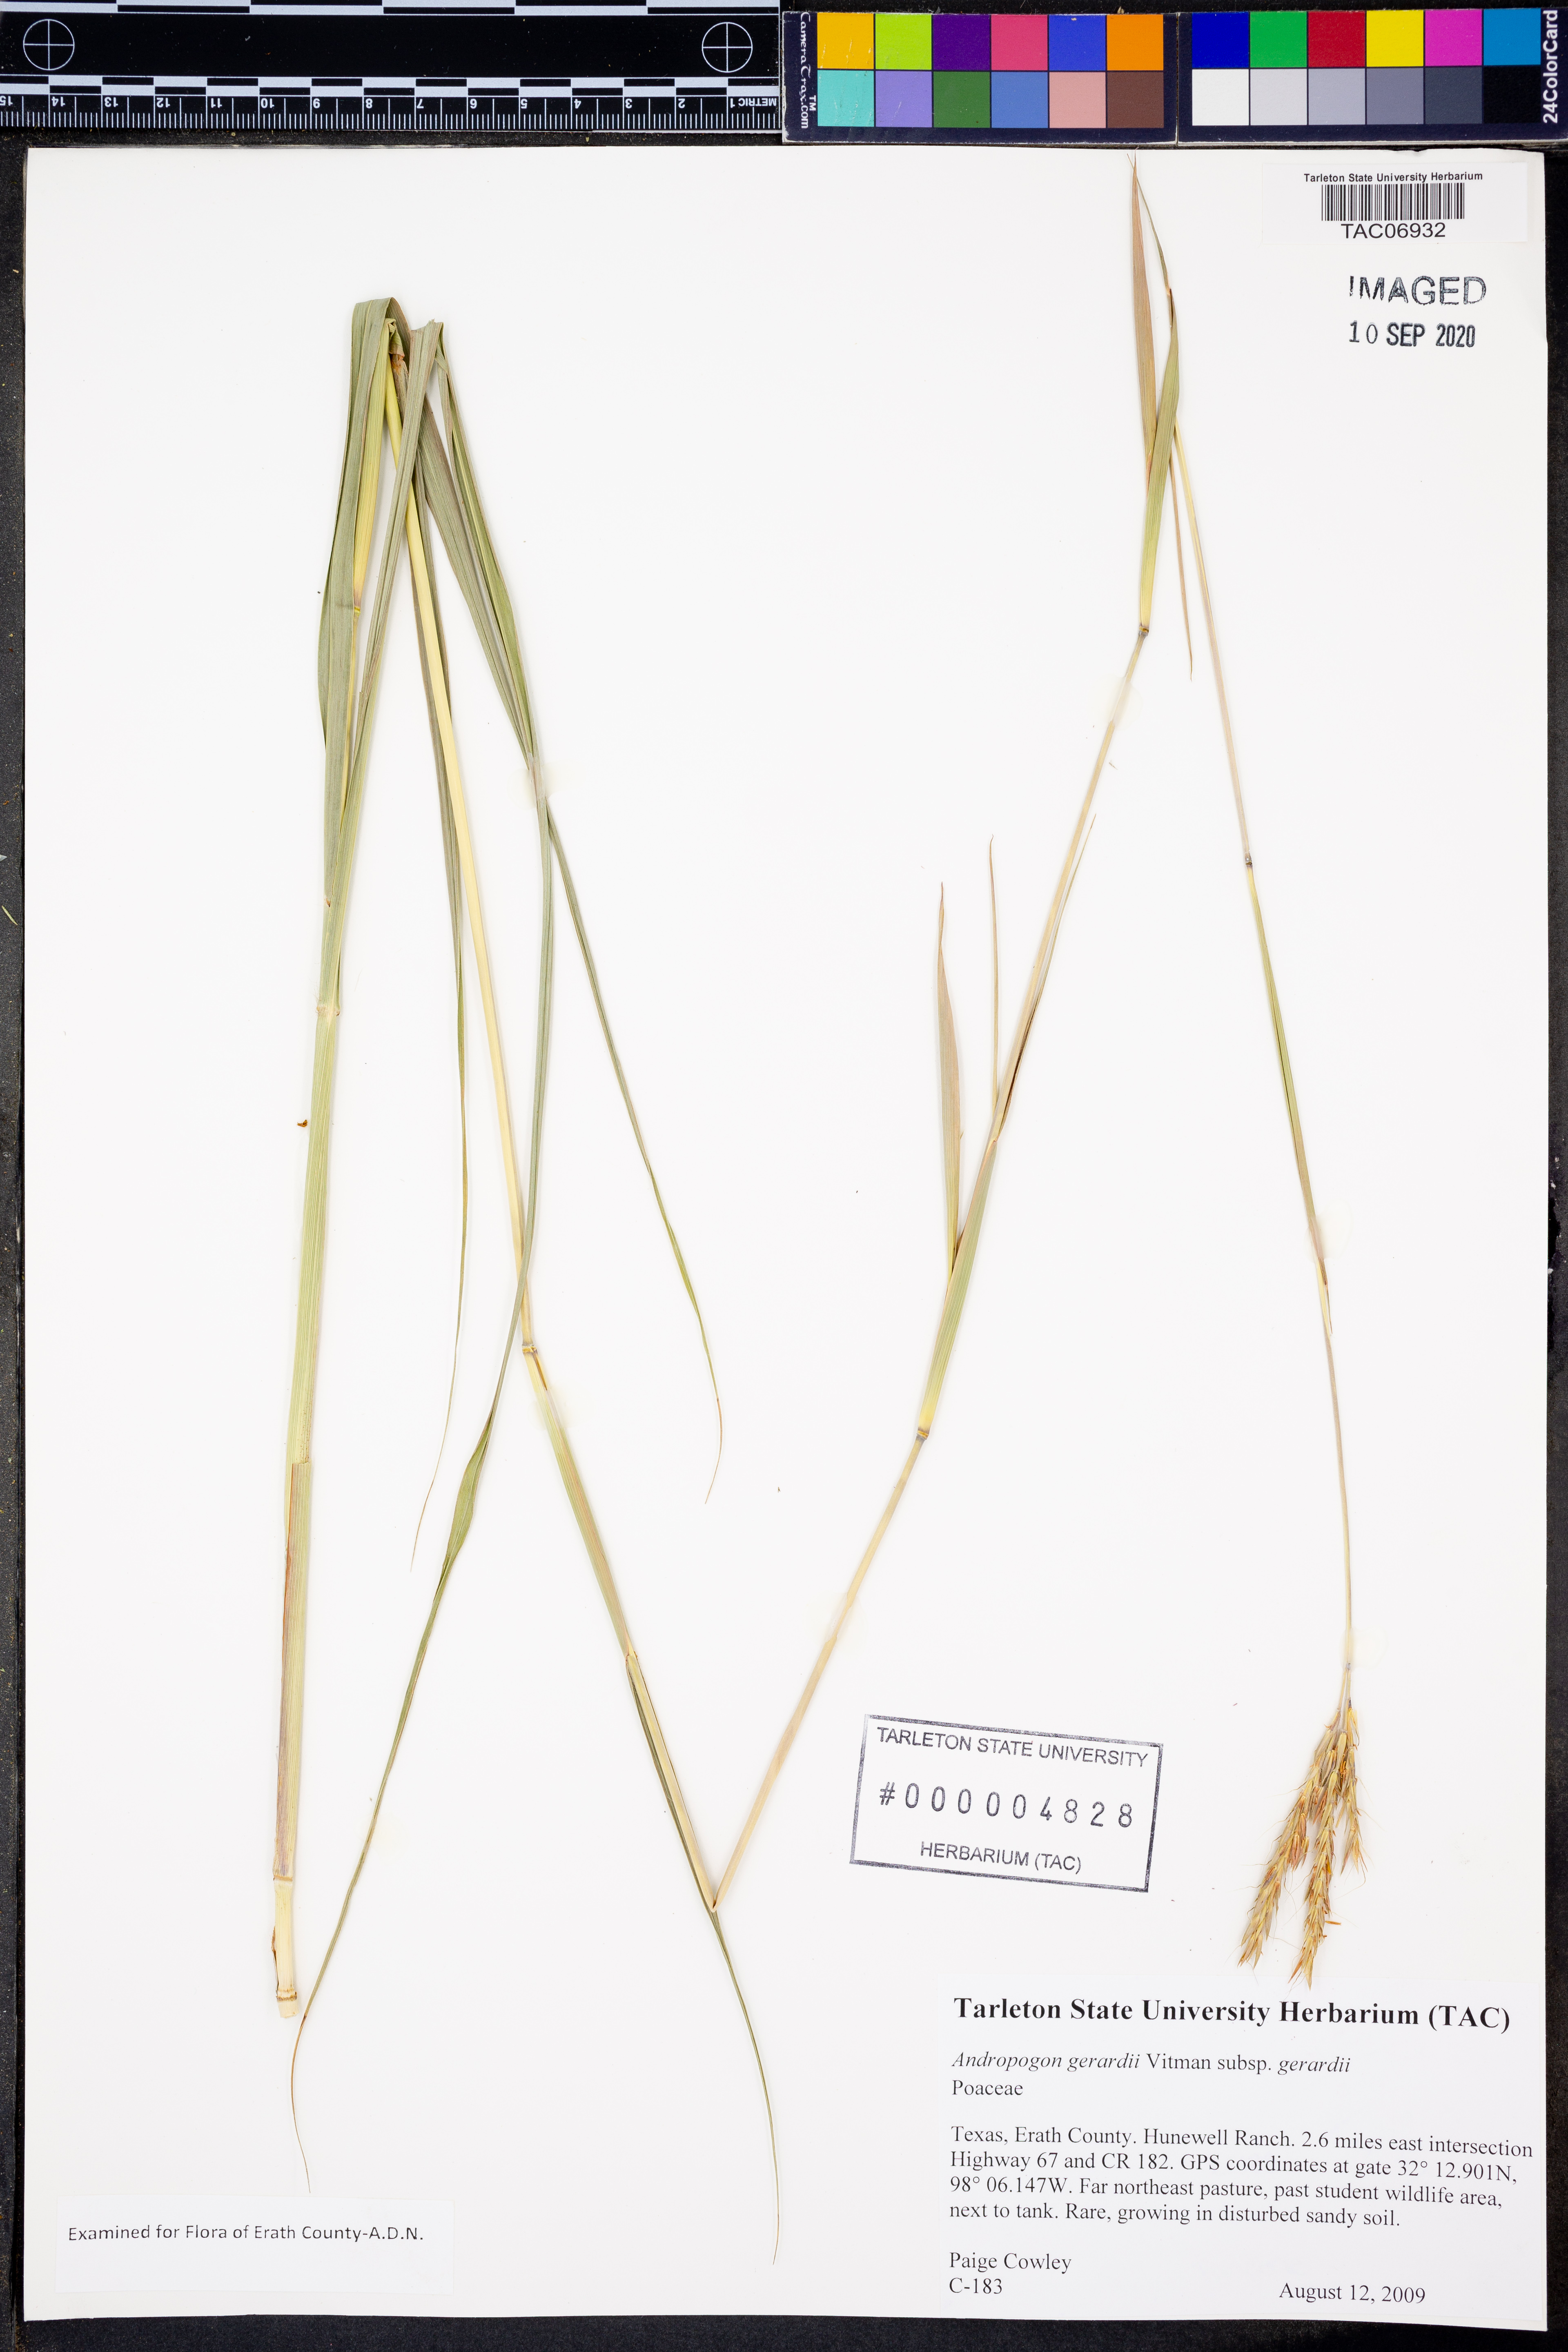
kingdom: Plantae
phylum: Tracheophyta
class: Liliopsida
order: Poales
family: Poaceae
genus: Andropogon
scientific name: Andropogon gerardi
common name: Big bluestem
